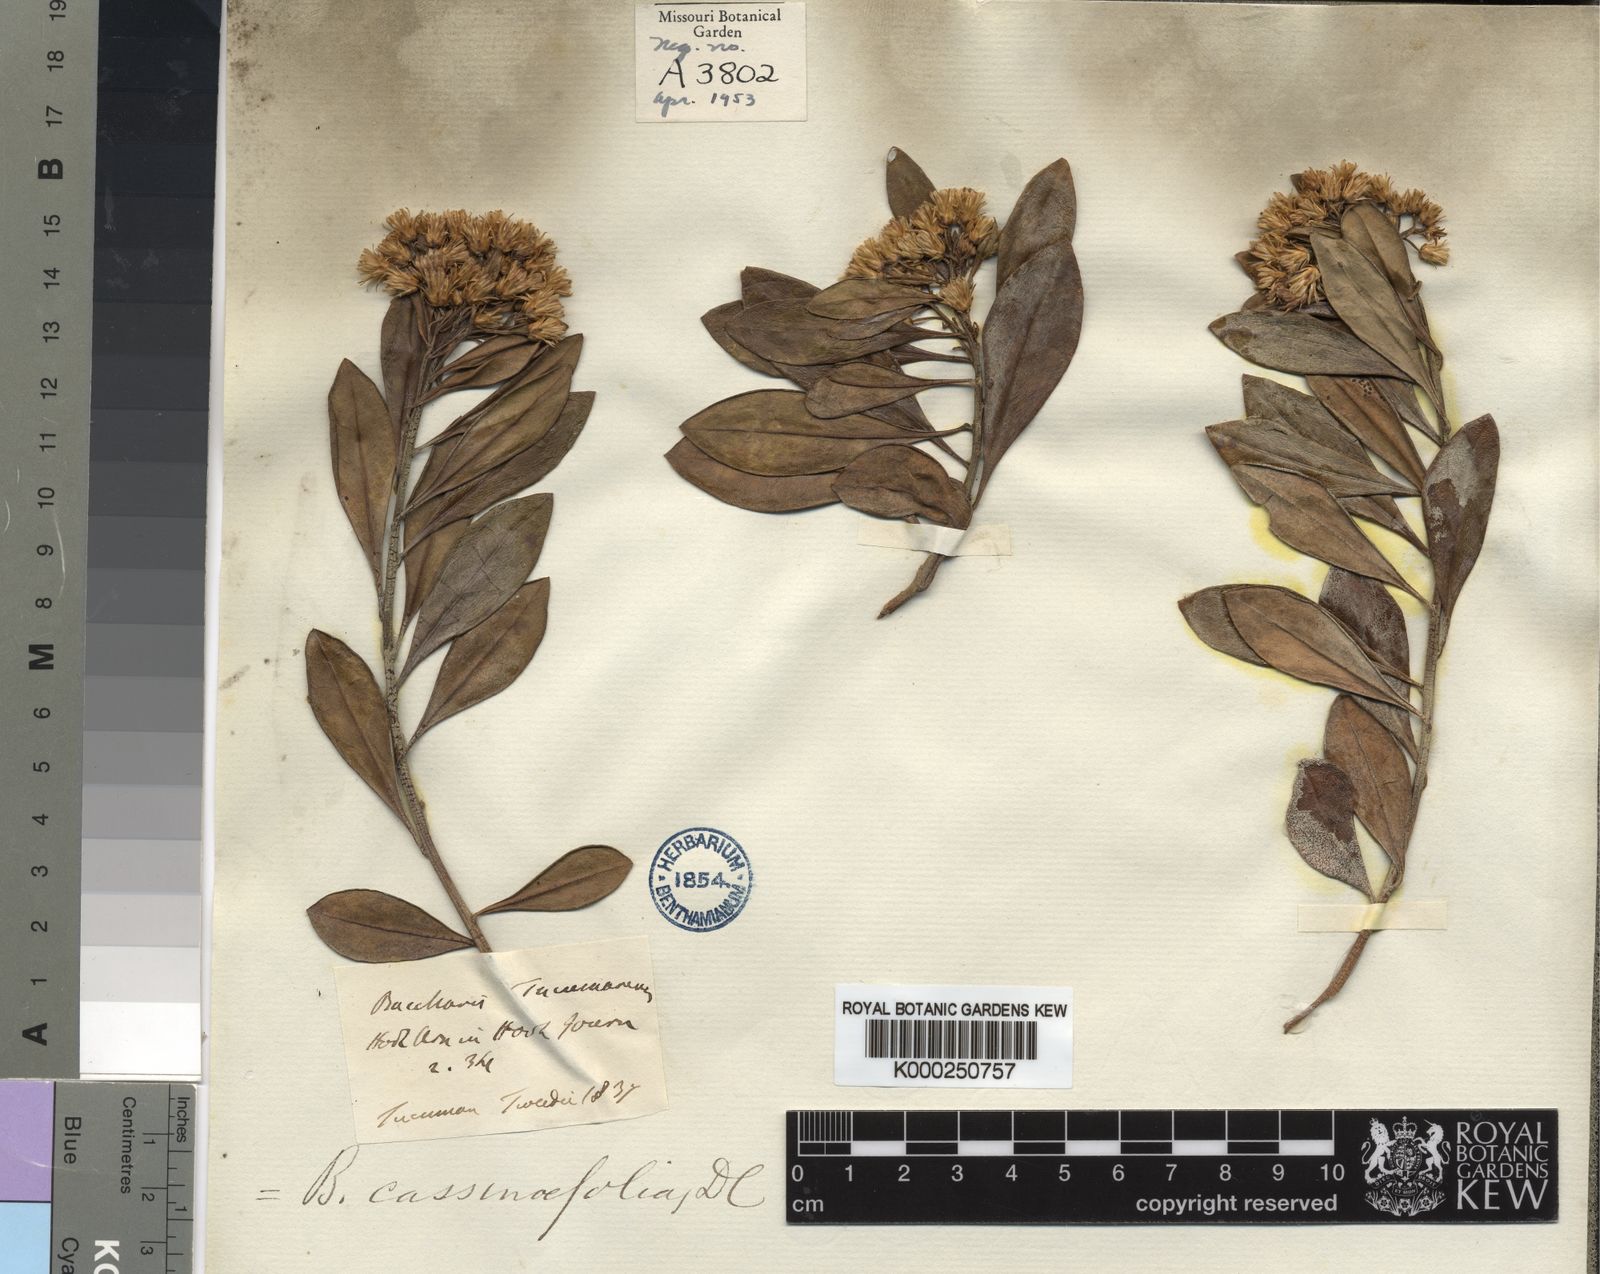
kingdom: Plantae
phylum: Tracheophyta
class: Magnoliopsida
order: Asterales
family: Asteraceae
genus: Baccharis
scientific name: Baccharis singularis
